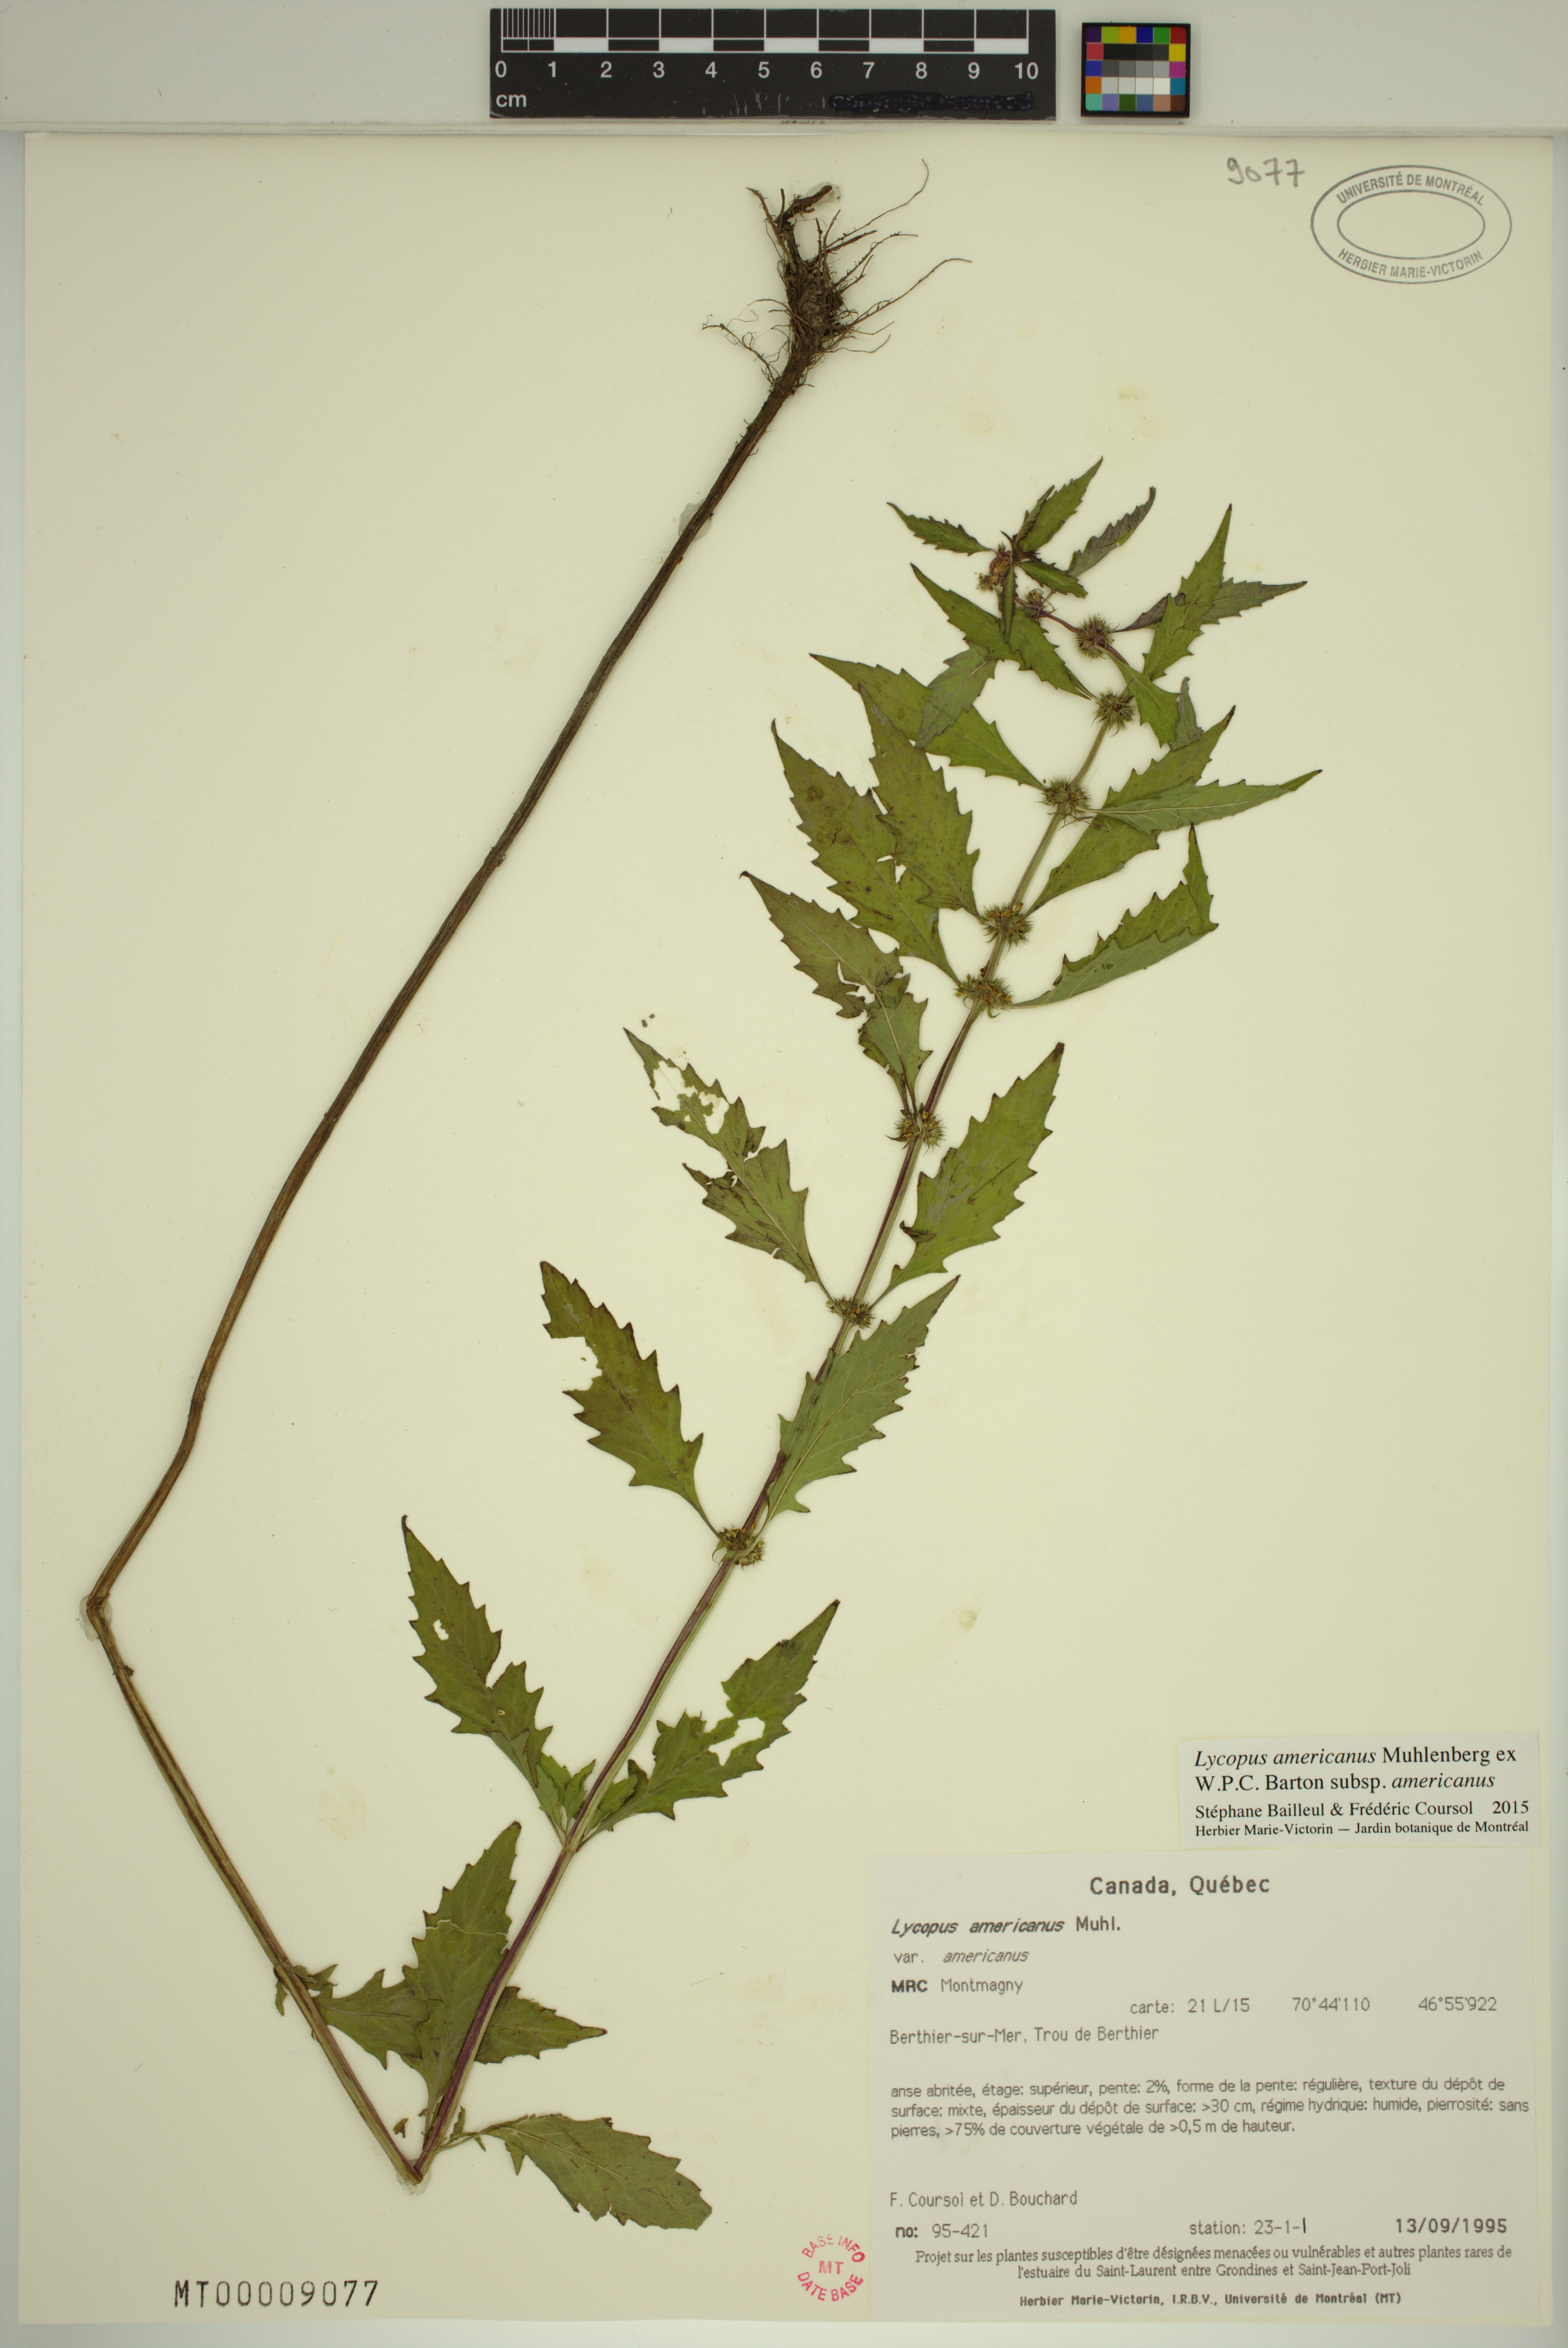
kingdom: Plantae
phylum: Tracheophyta
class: Magnoliopsida
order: Lamiales
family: Lamiaceae
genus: Lycopus
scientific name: Lycopus americanus
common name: American bugleweed
